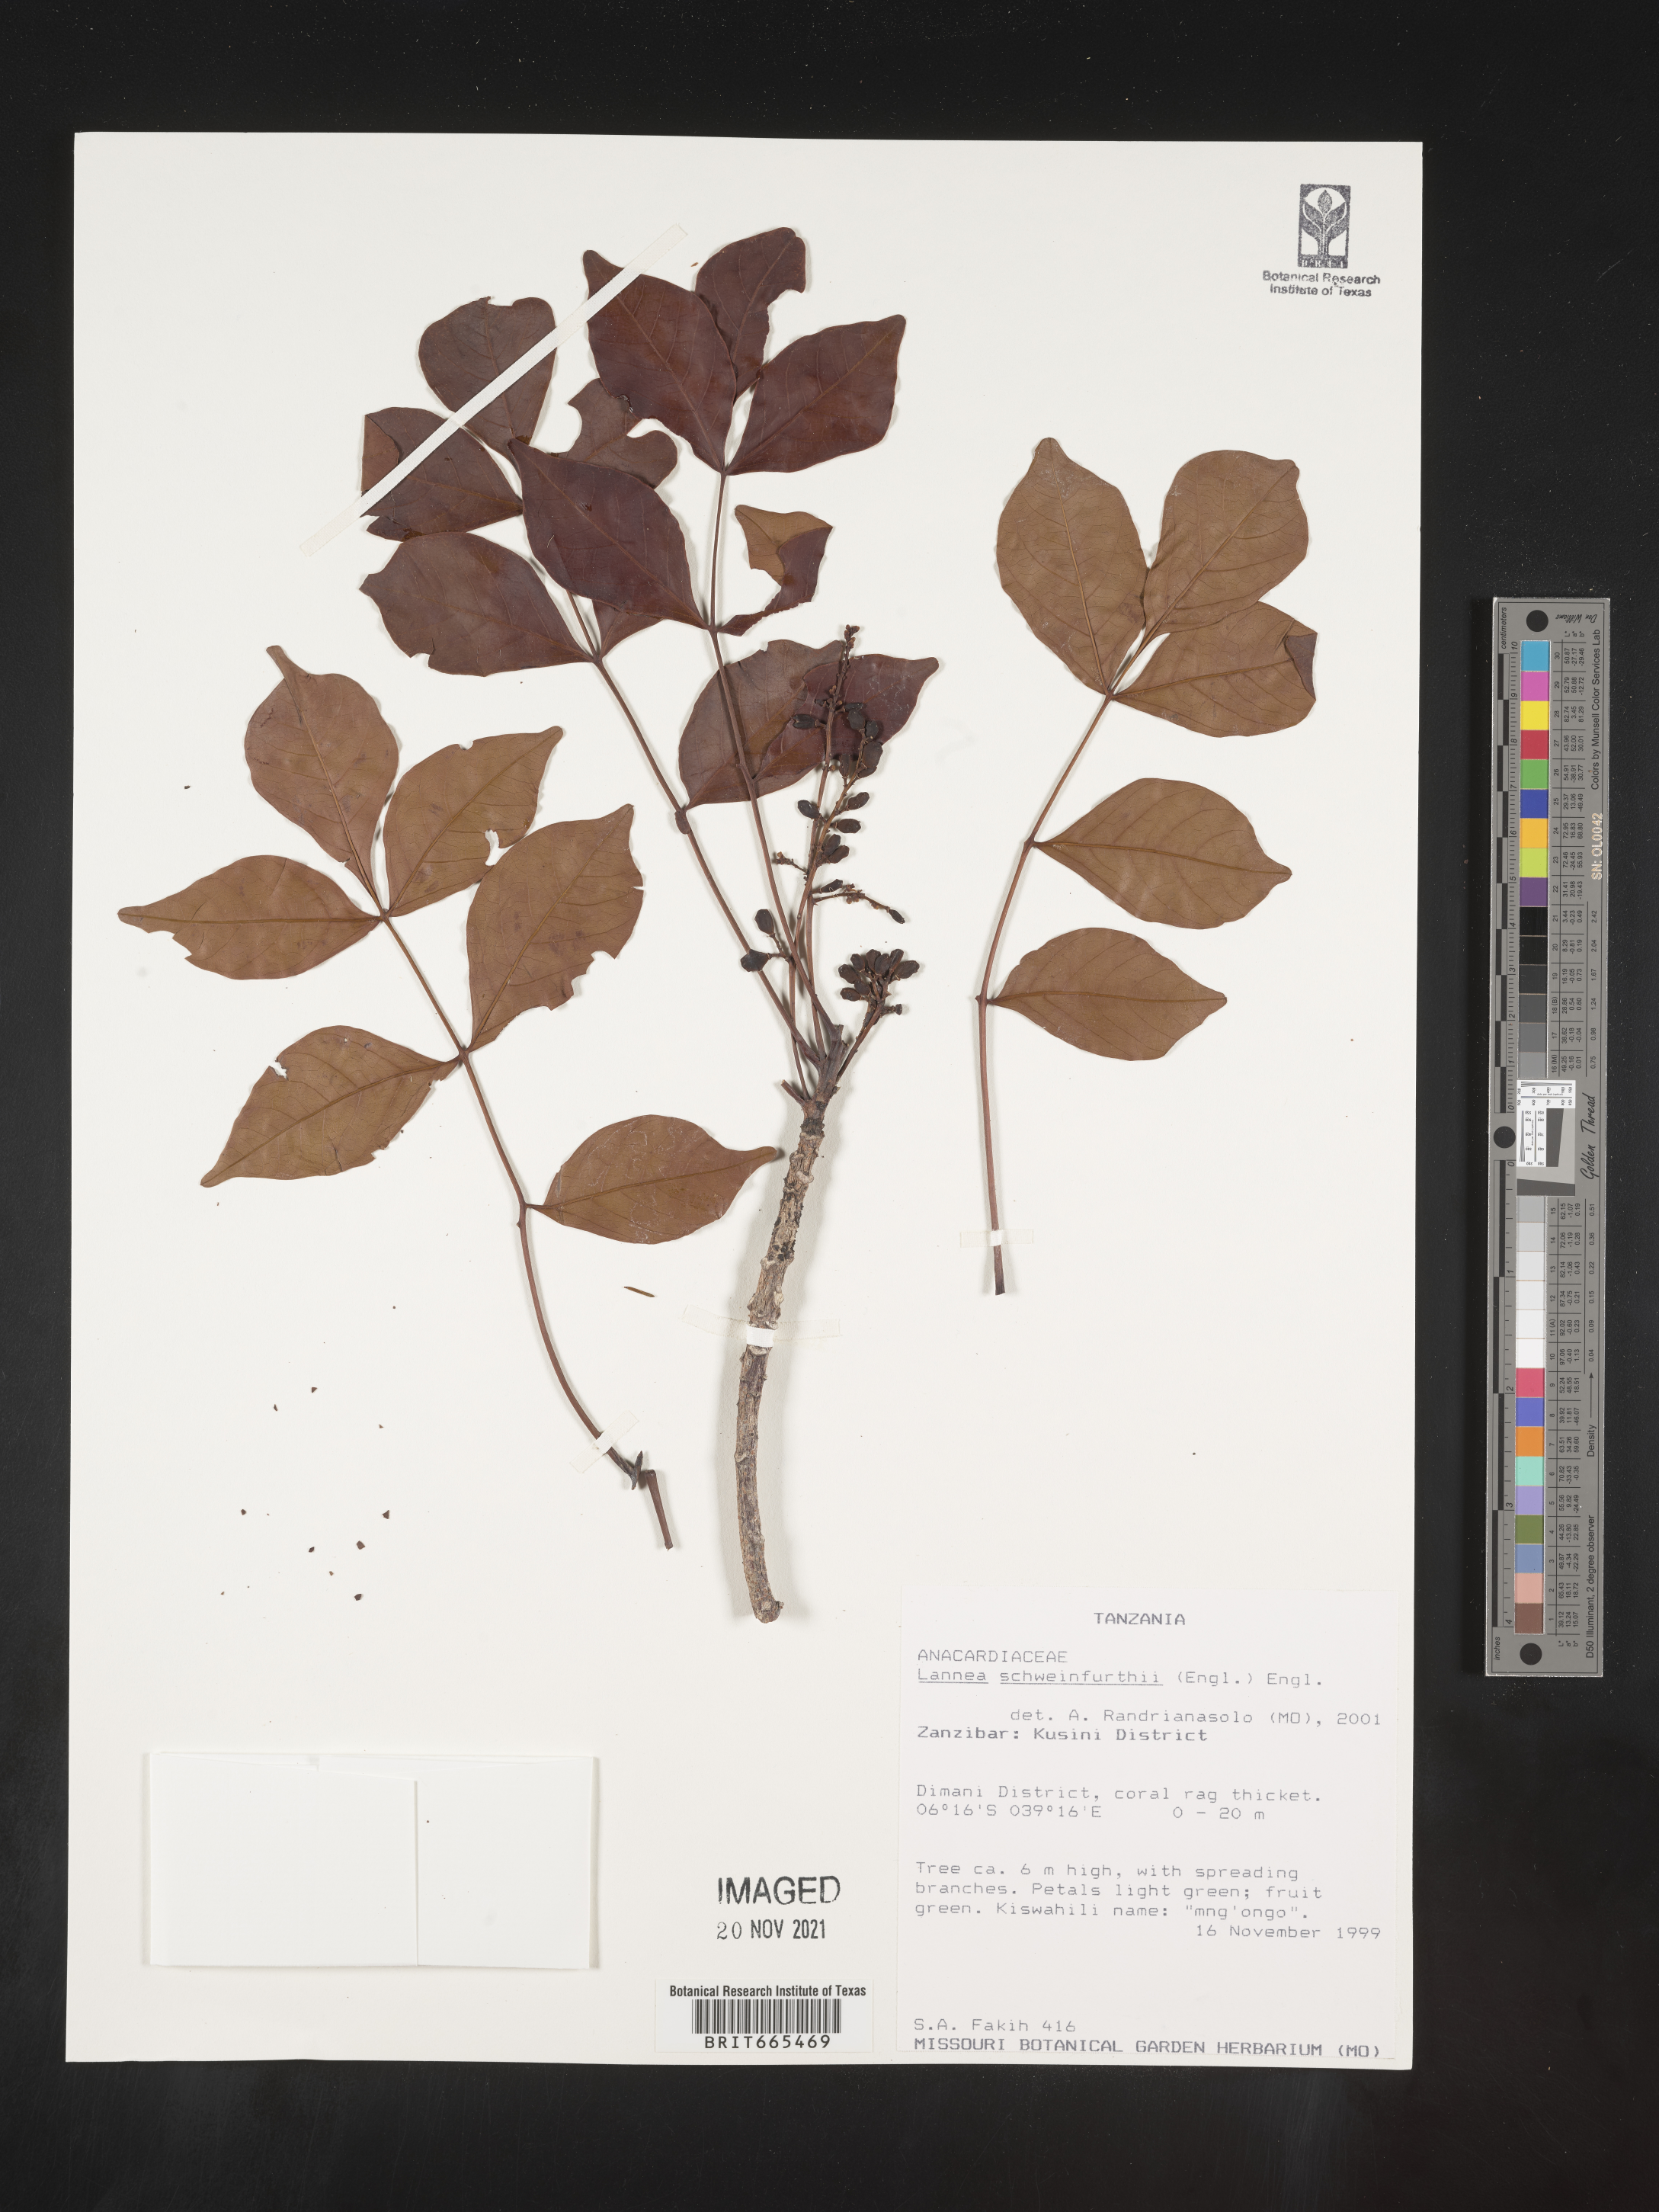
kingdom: Plantae
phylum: Tracheophyta
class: Magnoliopsida
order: Sapindales
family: Anacardiaceae
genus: Lannea
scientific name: Lannea
